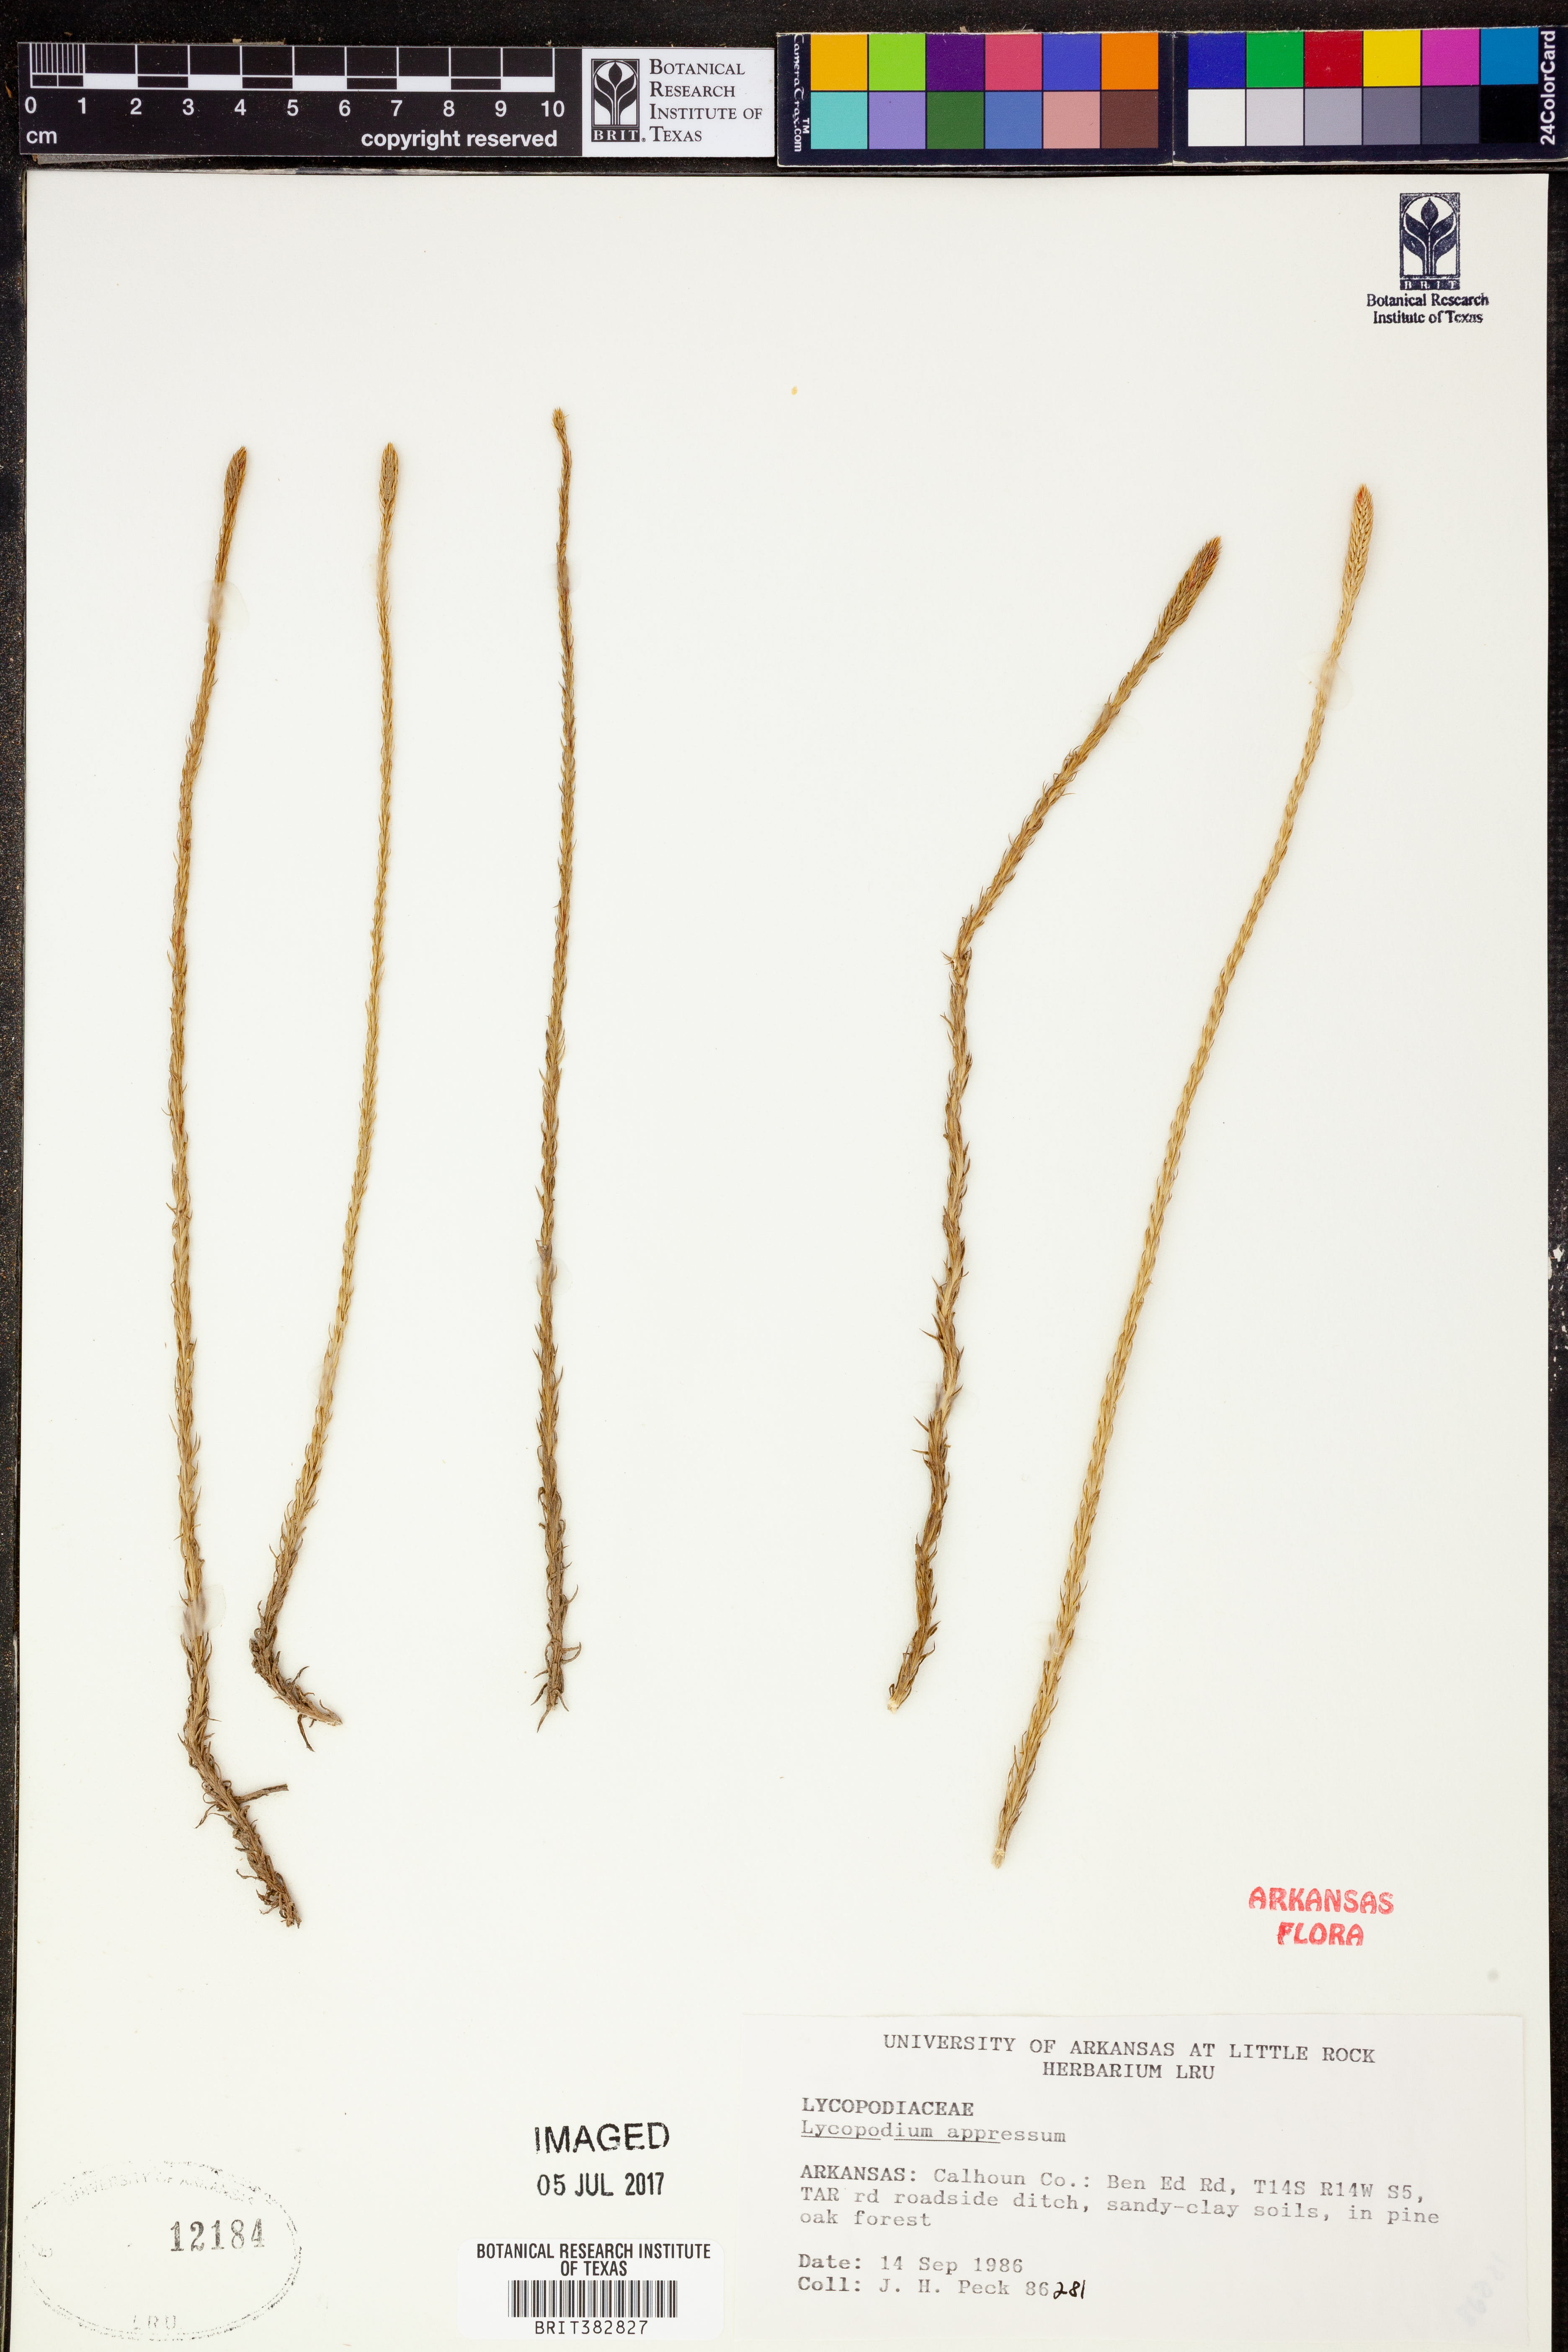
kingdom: Plantae
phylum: Tracheophyta
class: Lycopodiopsida
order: Lycopodiales
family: Lycopodiaceae
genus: Lycopodiella
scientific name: Lycopodiella appressa
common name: Appressed bog clubmoss
